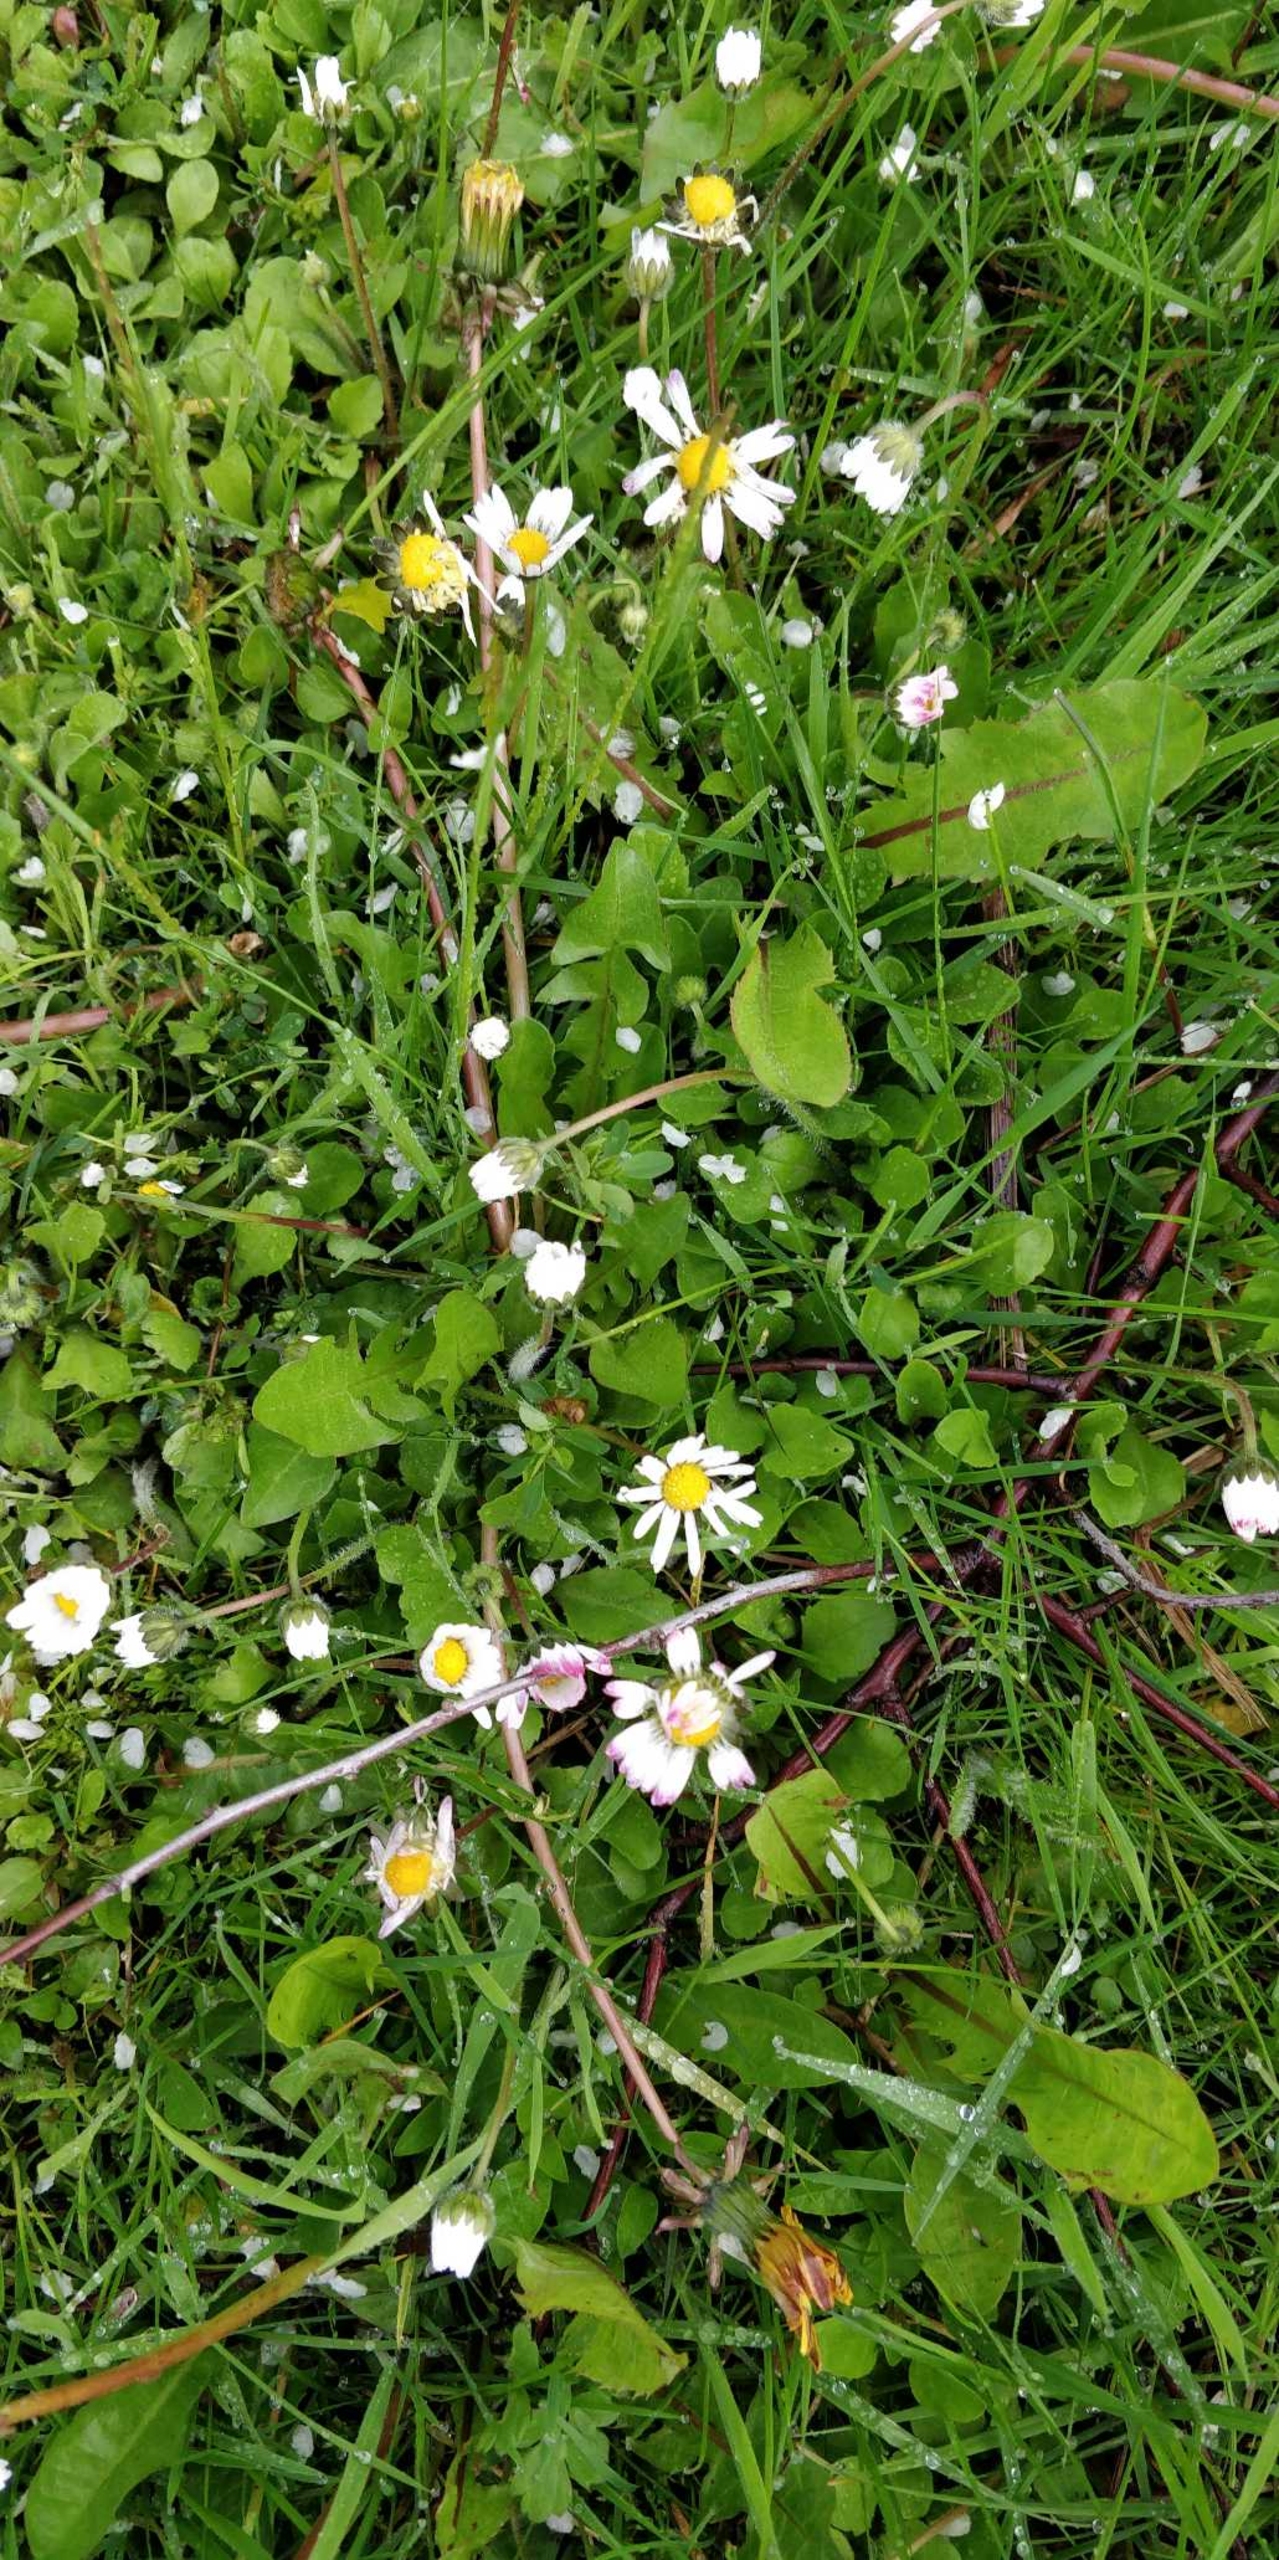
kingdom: Plantae
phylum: Tracheophyta
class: Magnoliopsida
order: Asterales
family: Asteraceae
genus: Bellis
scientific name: Bellis perennis
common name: Tusindfryd
